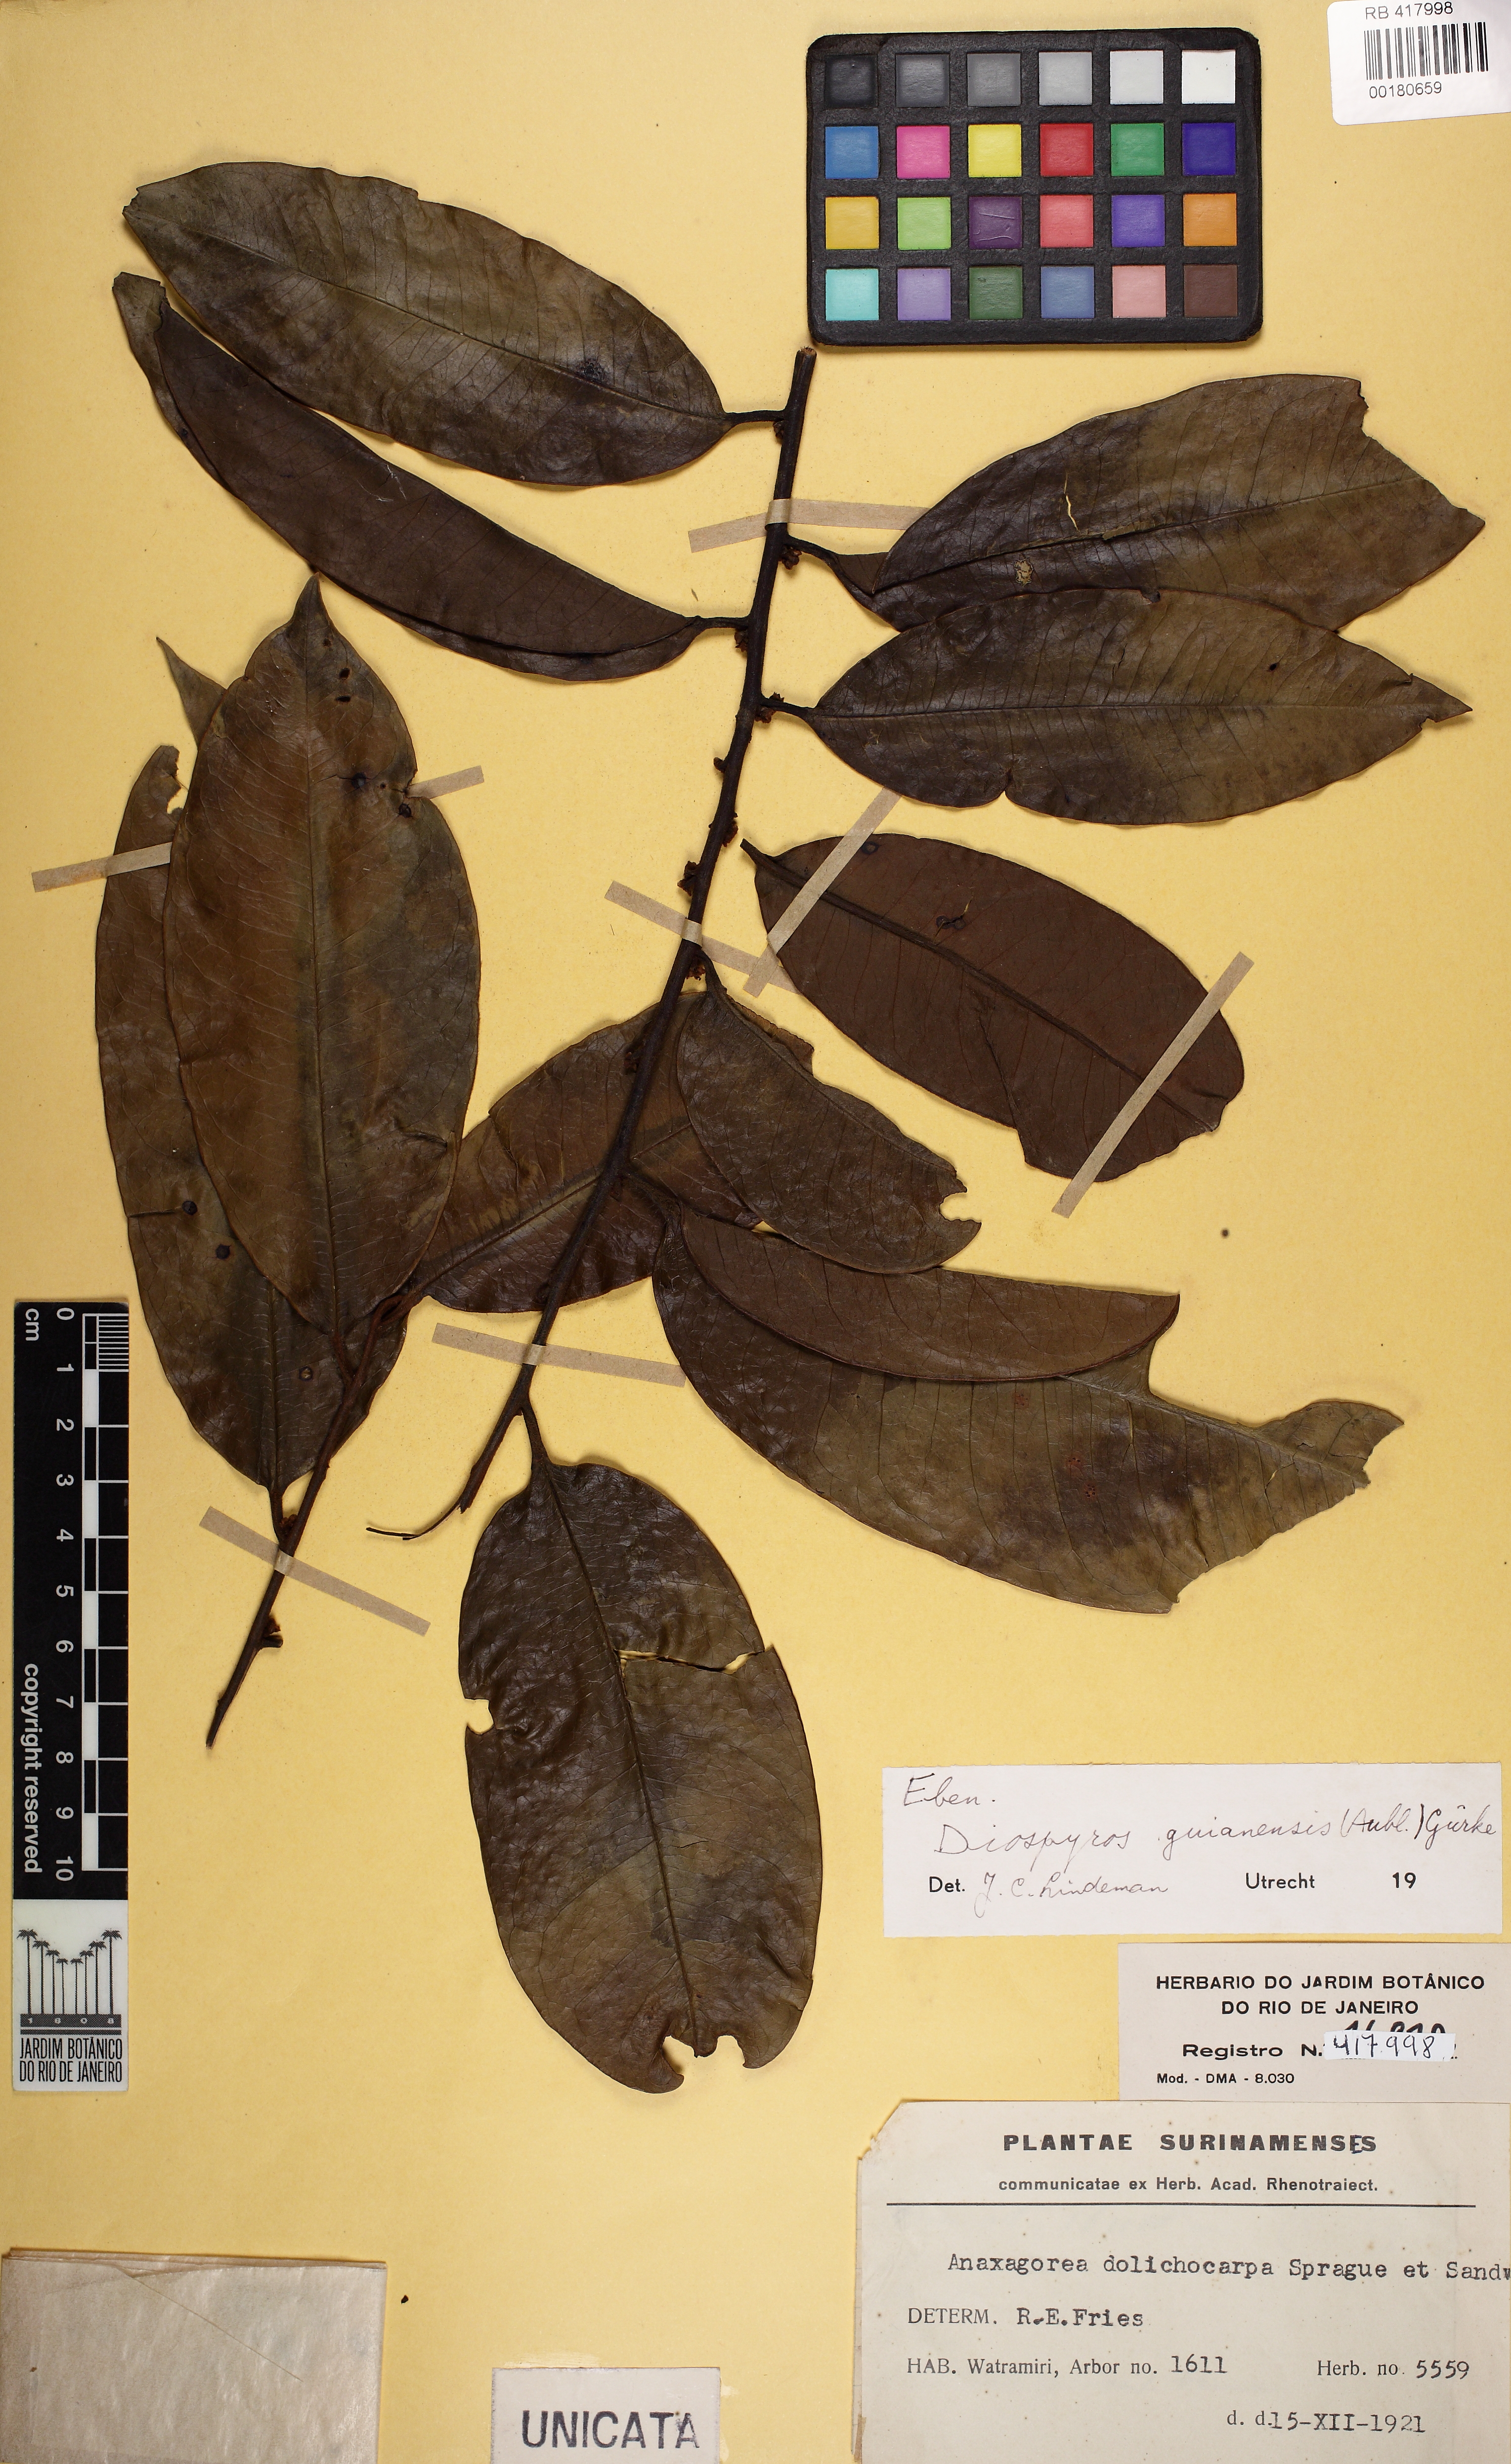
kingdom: Plantae
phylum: Tracheophyta
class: Magnoliopsida
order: Ericales
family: Ebenaceae
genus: Diospyros
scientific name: Diospyros guianensis
